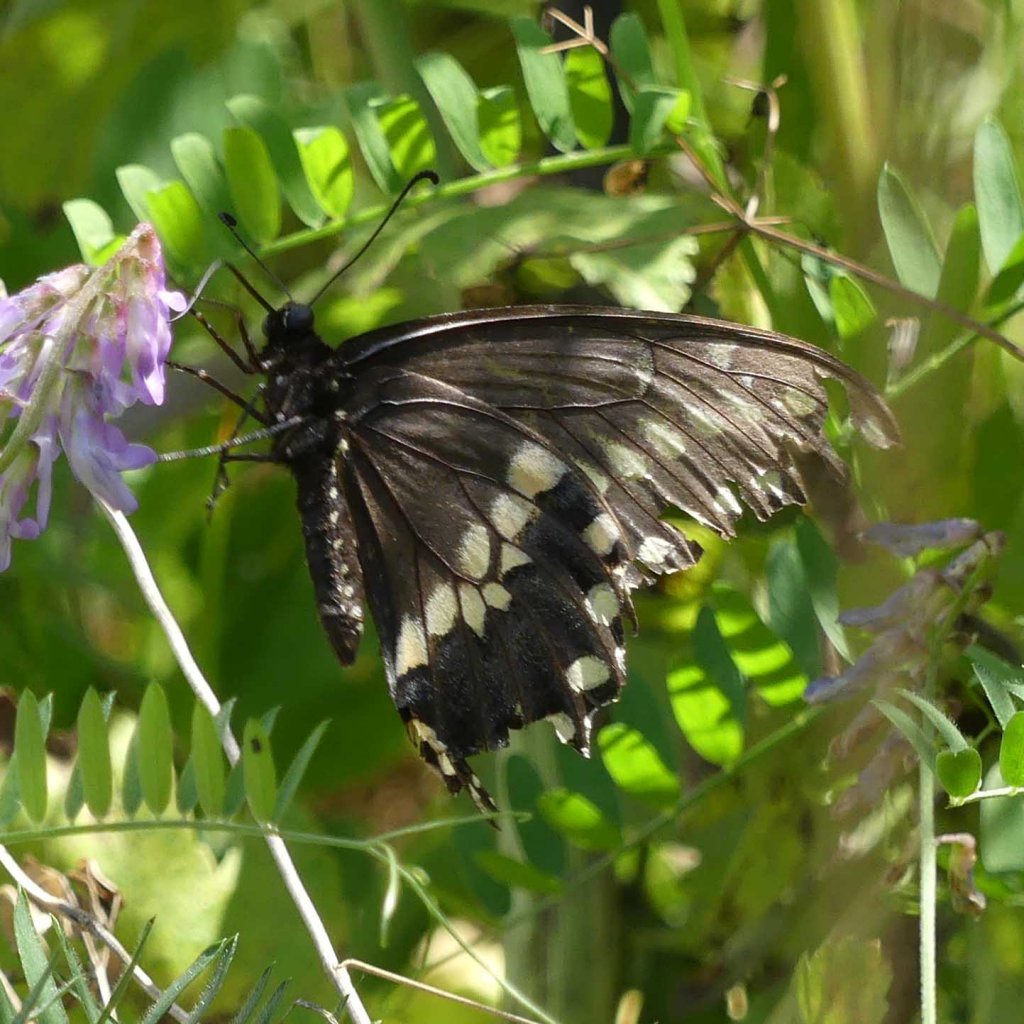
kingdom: Animalia
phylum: Arthropoda
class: Insecta
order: Lepidoptera
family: Papilionidae
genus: Papilio
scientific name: Papilio polyxenes
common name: Black Swallowtail
